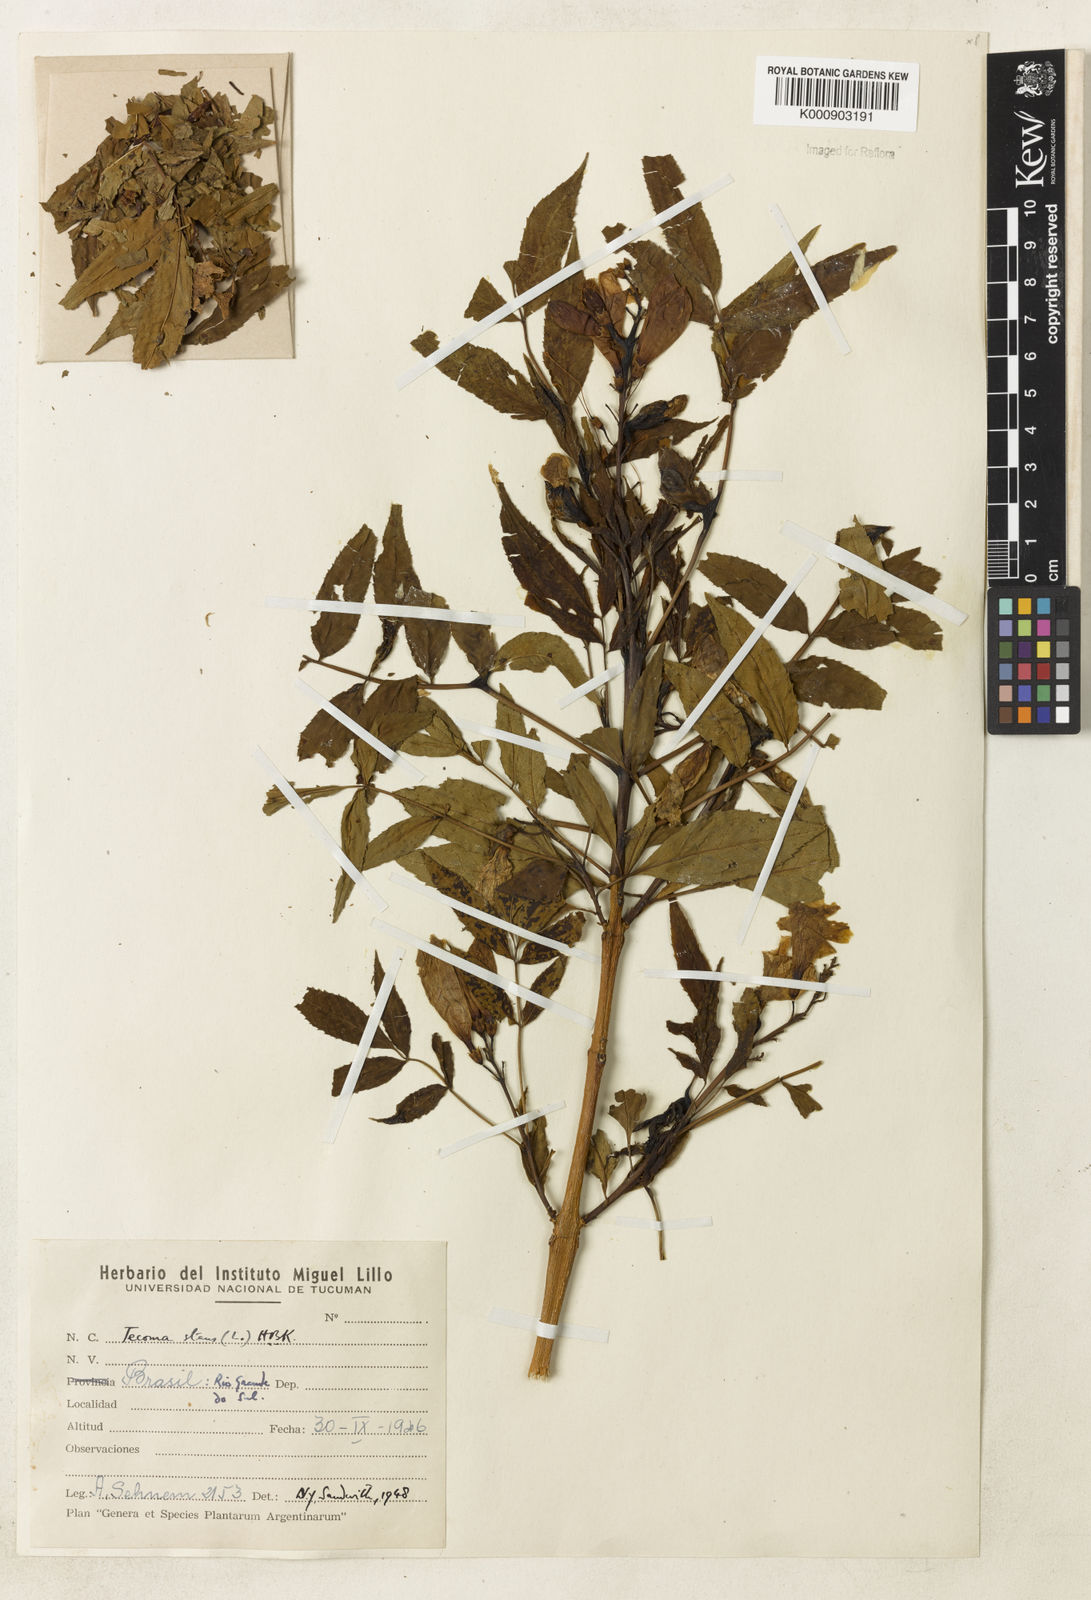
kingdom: Plantae
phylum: Tracheophyta
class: Magnoliopsida
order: Lamiales
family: Bignoniaceae
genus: Tecoma
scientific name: Tecoma stans
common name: Yellow trumpetbush
